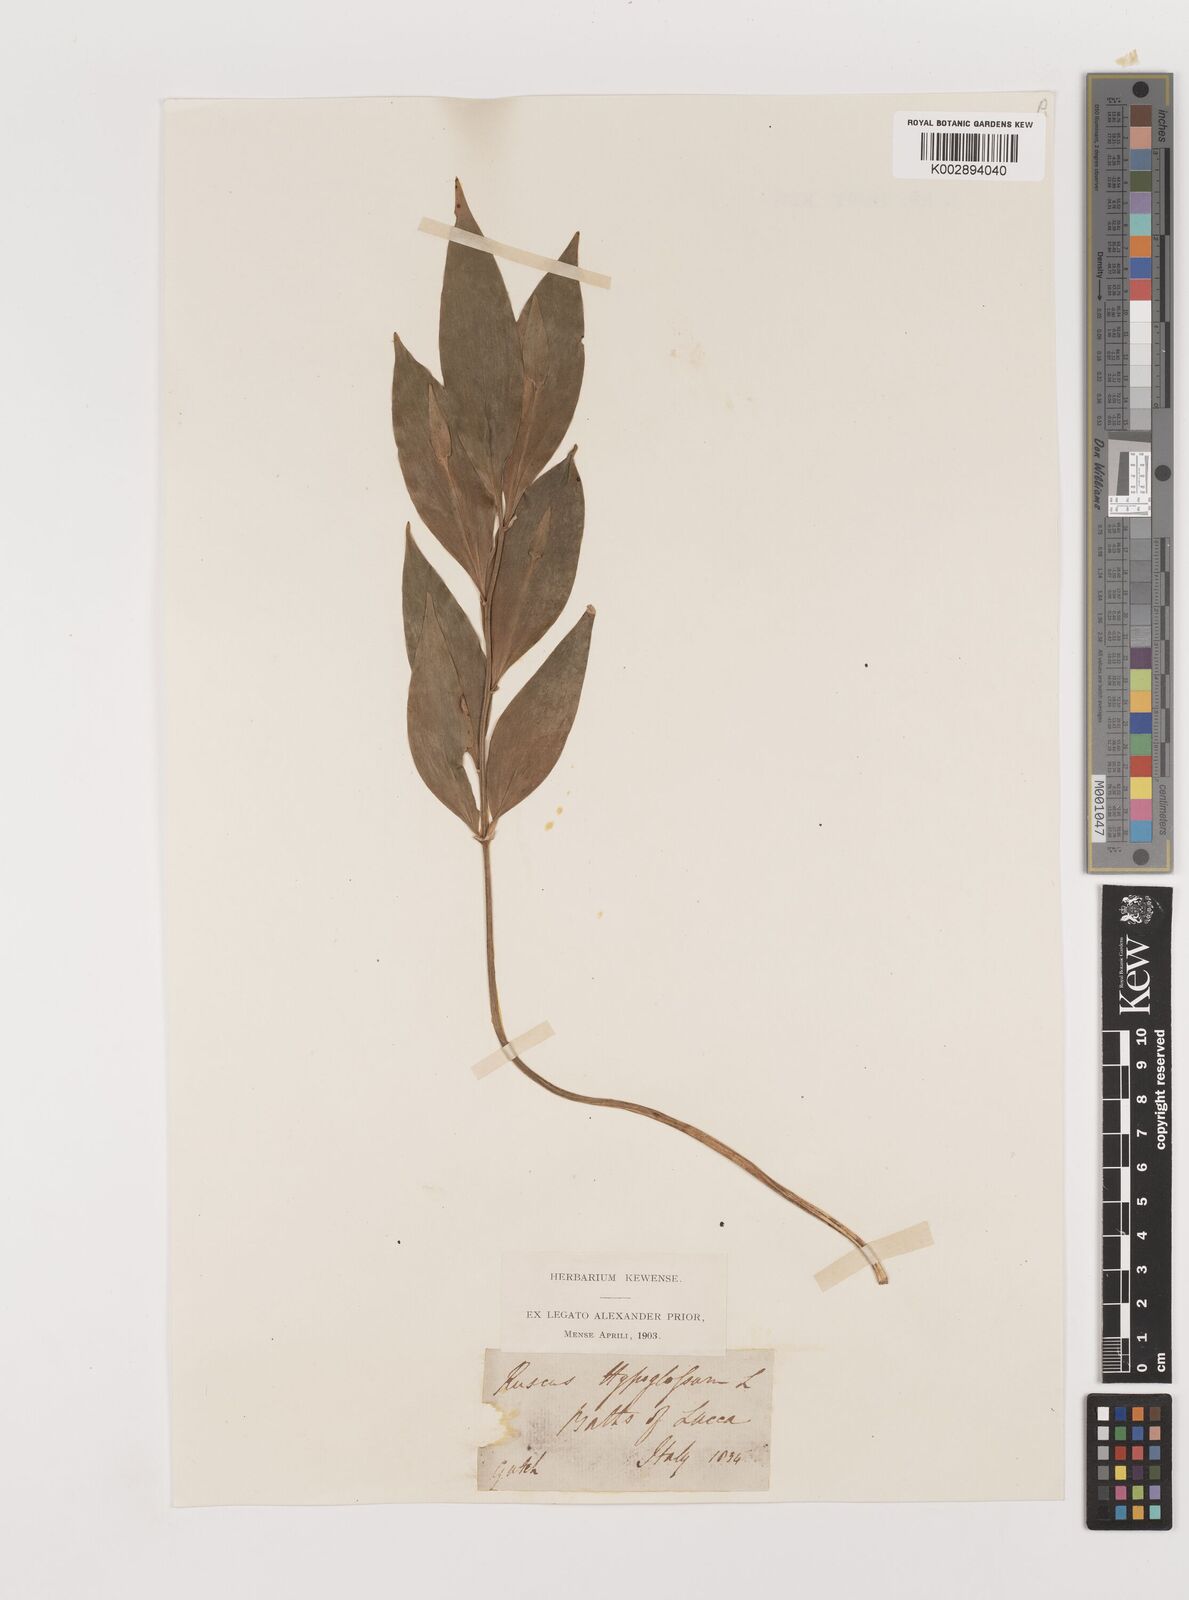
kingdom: Plantae
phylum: Tracheophyta
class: Liliopsida
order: Asparagales
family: Asparagaceae
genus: Ruscus
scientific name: Ruscus hypoglossum
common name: Spineless butcher's-broom
